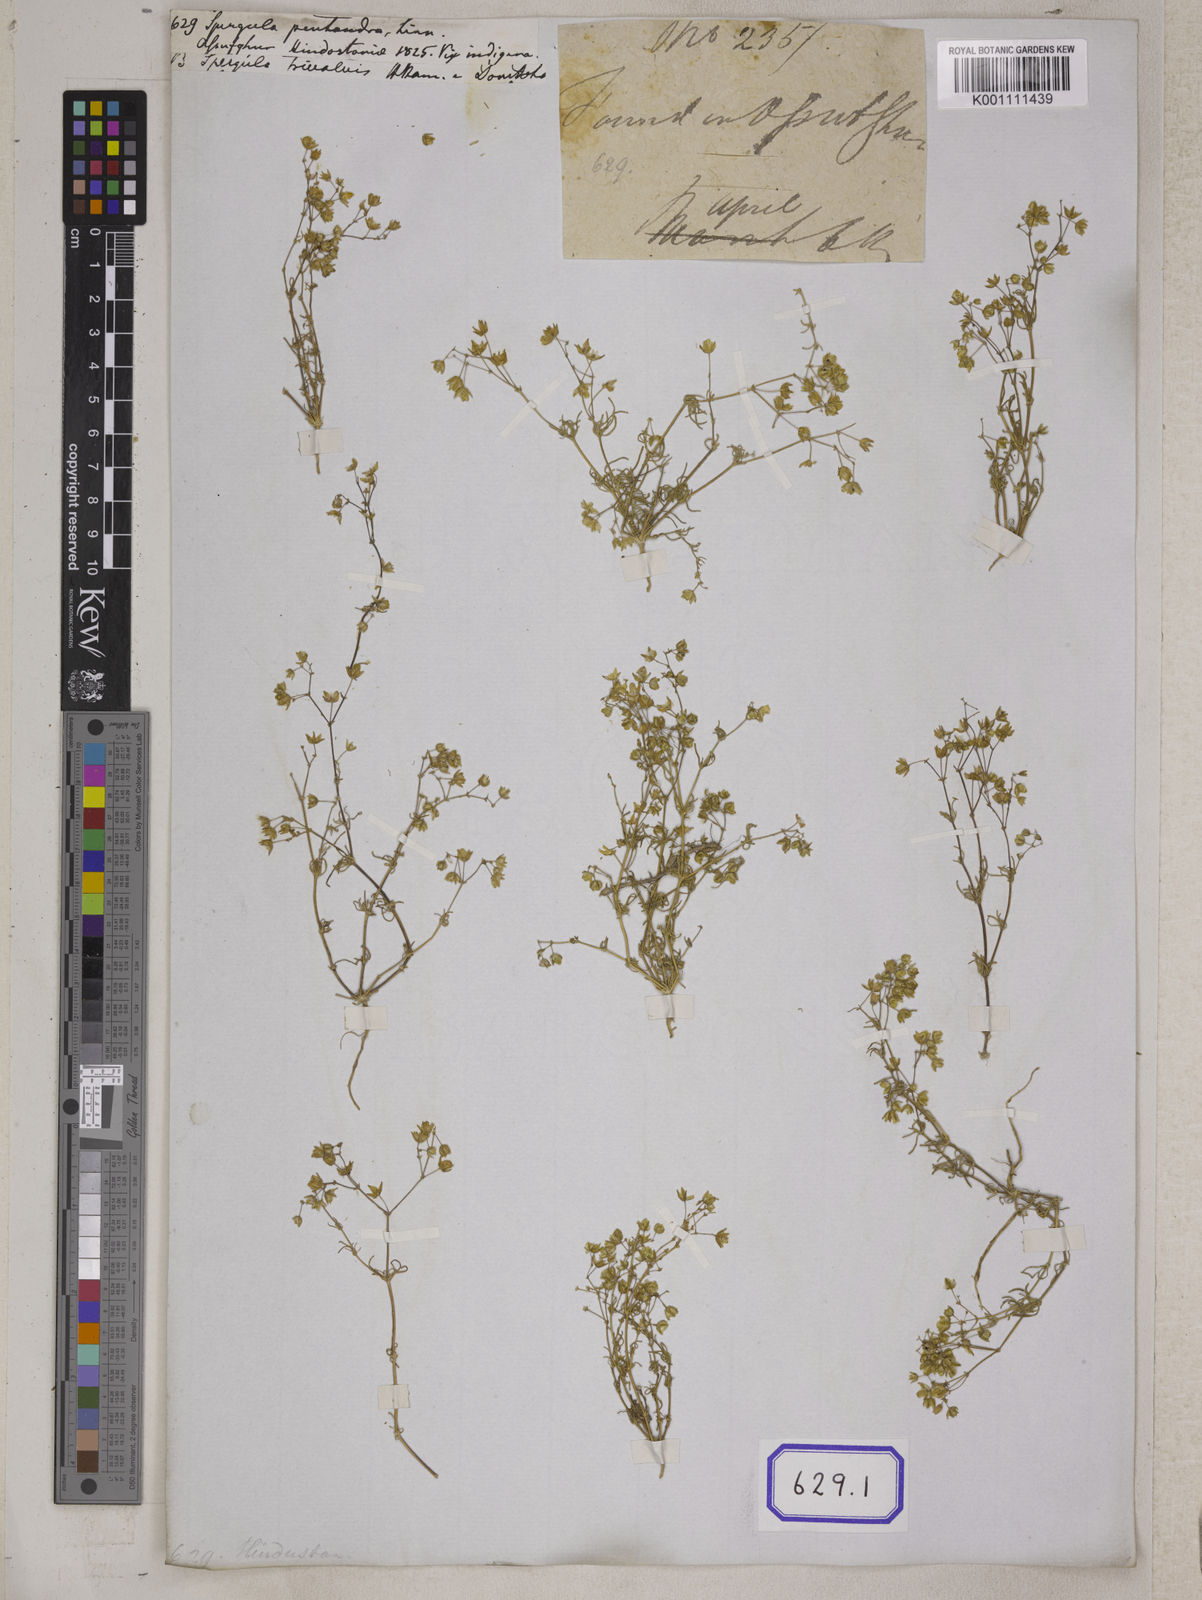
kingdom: Plantae
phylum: Tracheophyta
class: Magnoliopsida
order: Caryophyllales
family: Caryophyllaceae
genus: Spergula
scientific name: Spergula pentandra
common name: Wingstem spurry
